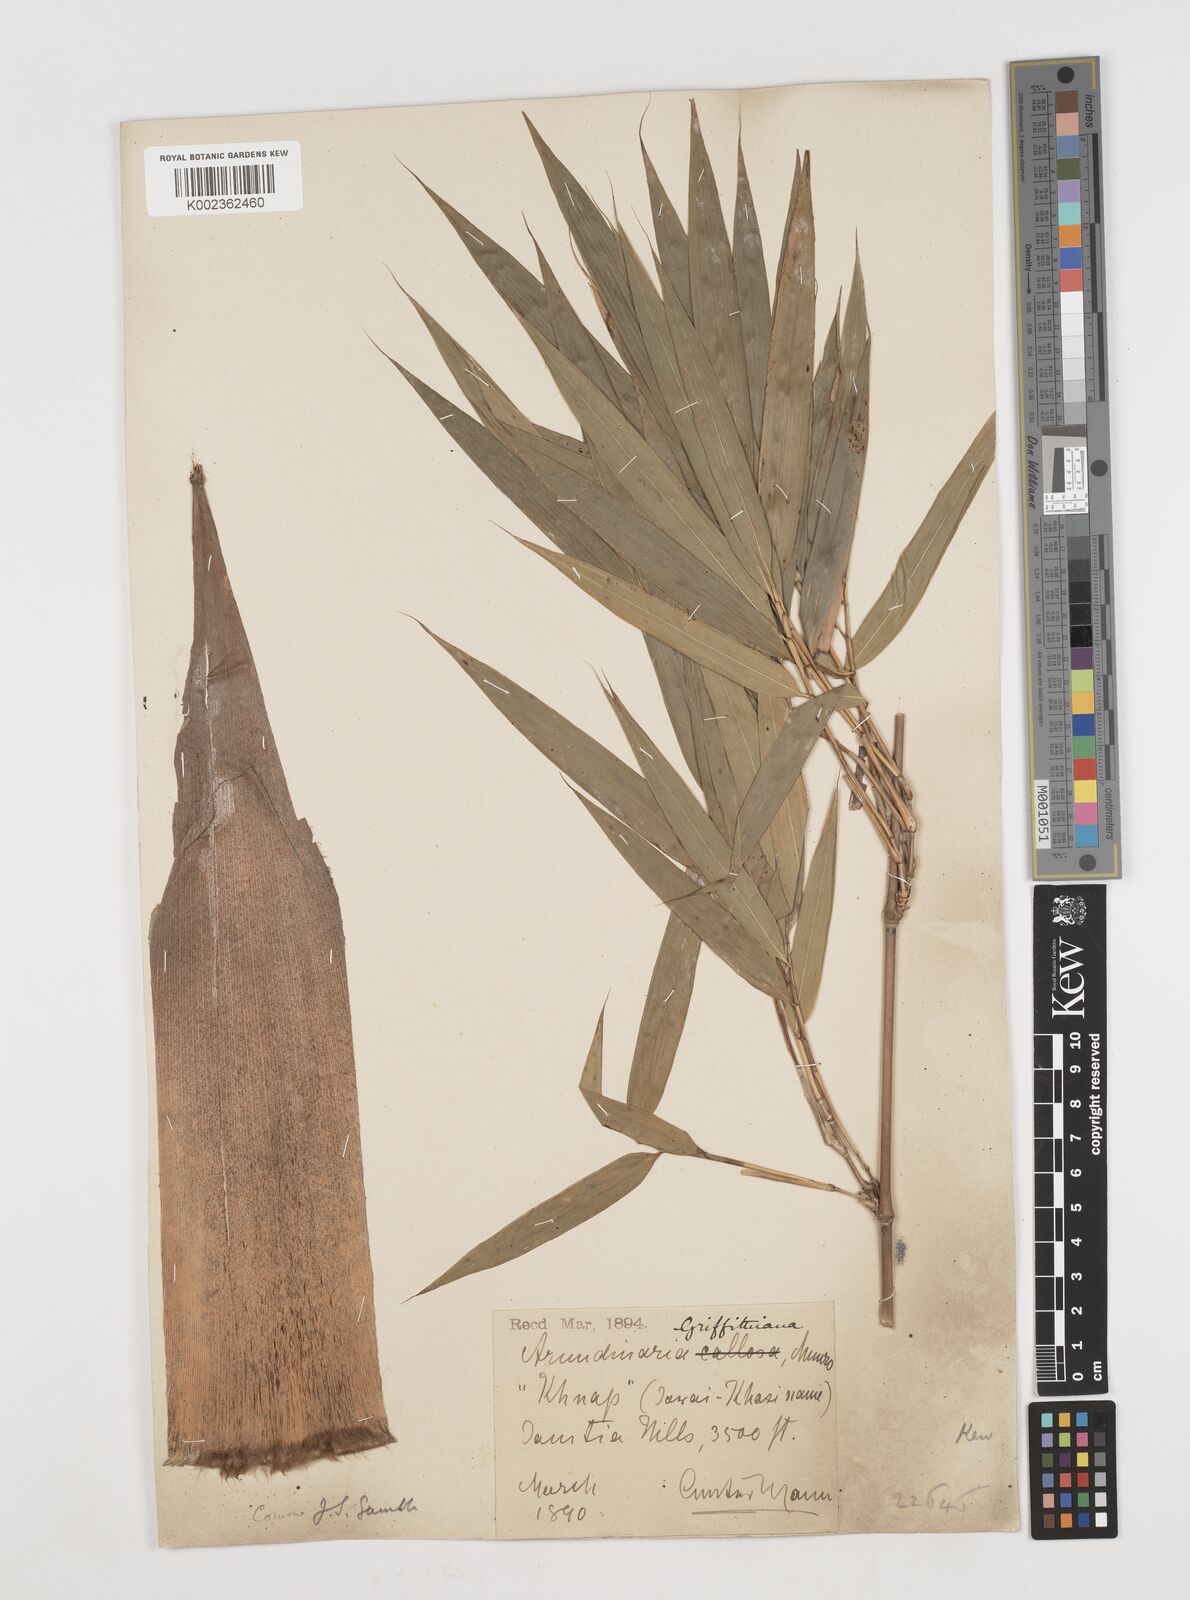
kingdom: Plantae
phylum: Tracheophyta
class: Liliopsida
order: Poales
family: Poaceae
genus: Chimonocalamus
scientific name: Chimonocalamus griffithianus
